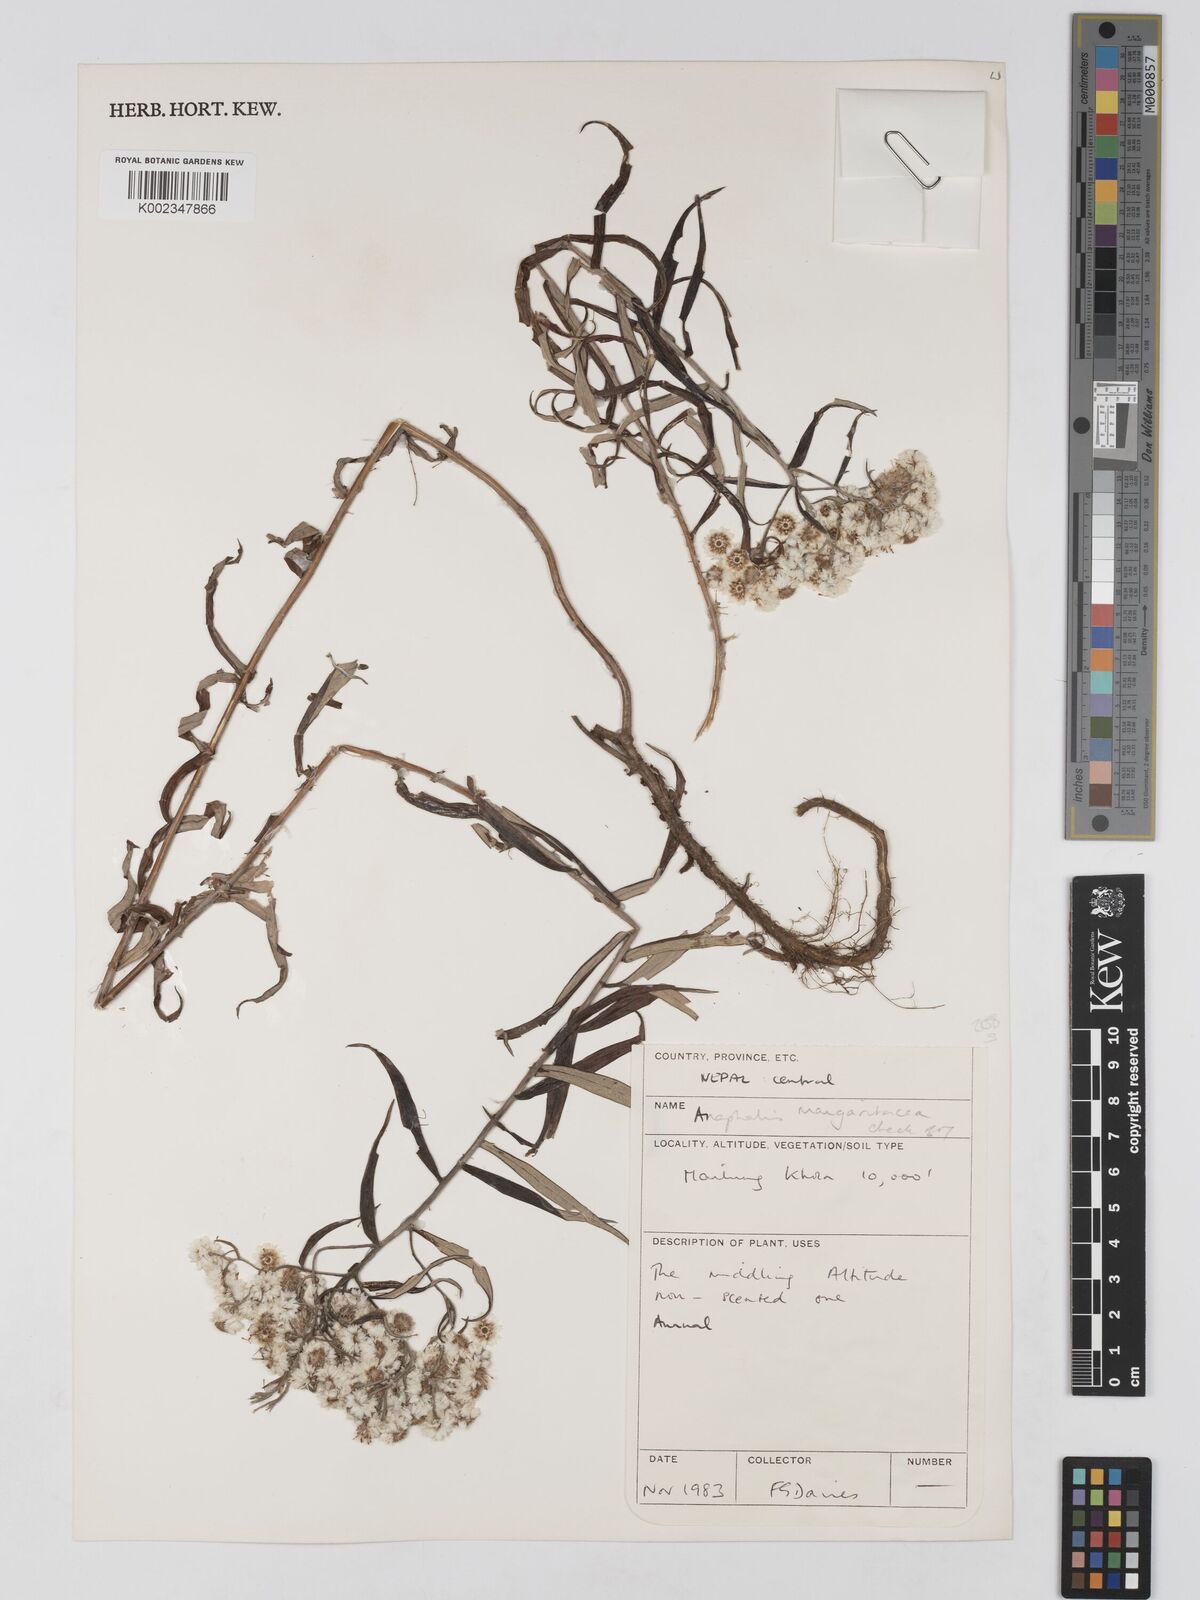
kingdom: Plantae
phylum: Tracheophyta
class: Magnoliopsida
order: Asterales
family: Asteraceae
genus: Anaphalis
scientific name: Anaphalis margaritacea
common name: Pearly everlasting
